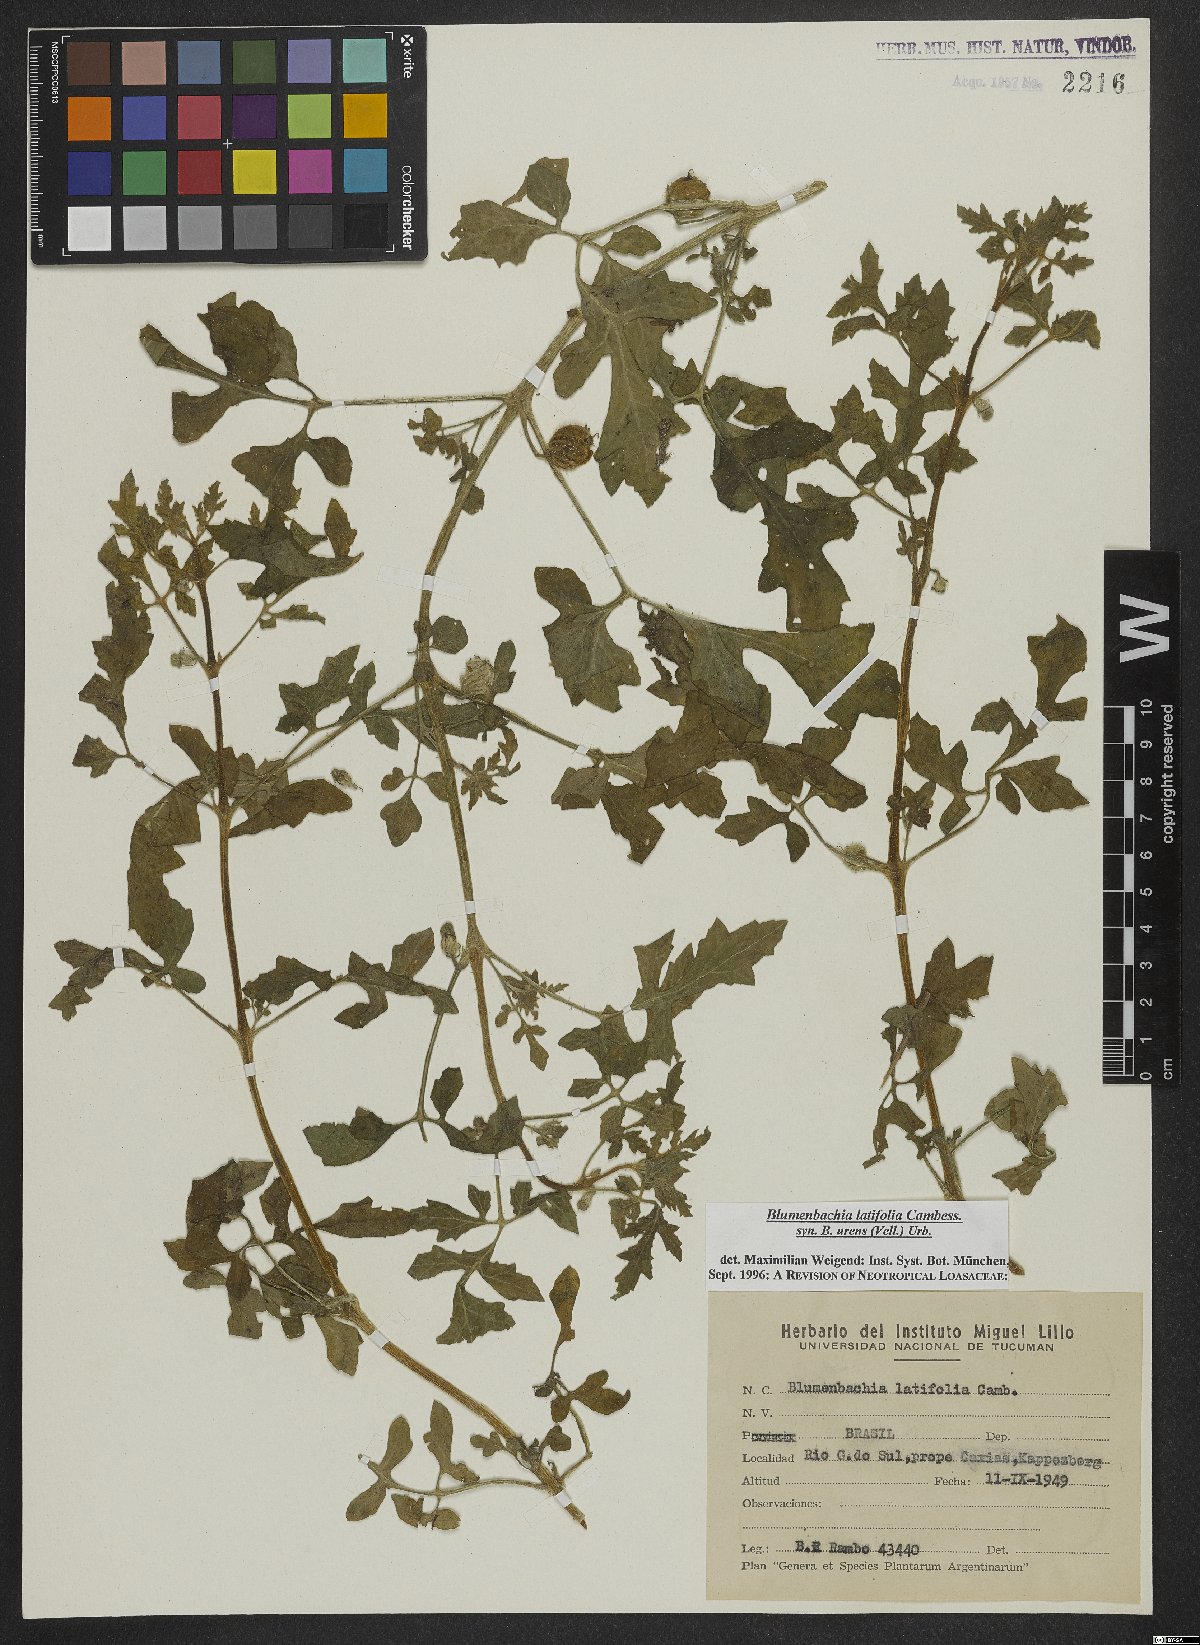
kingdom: Plantae
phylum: Tracheophyta
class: Magnoliopsida
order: Cornales
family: Loasaceae
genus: Blumenbachia
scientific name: Blumenbachia latifolia
